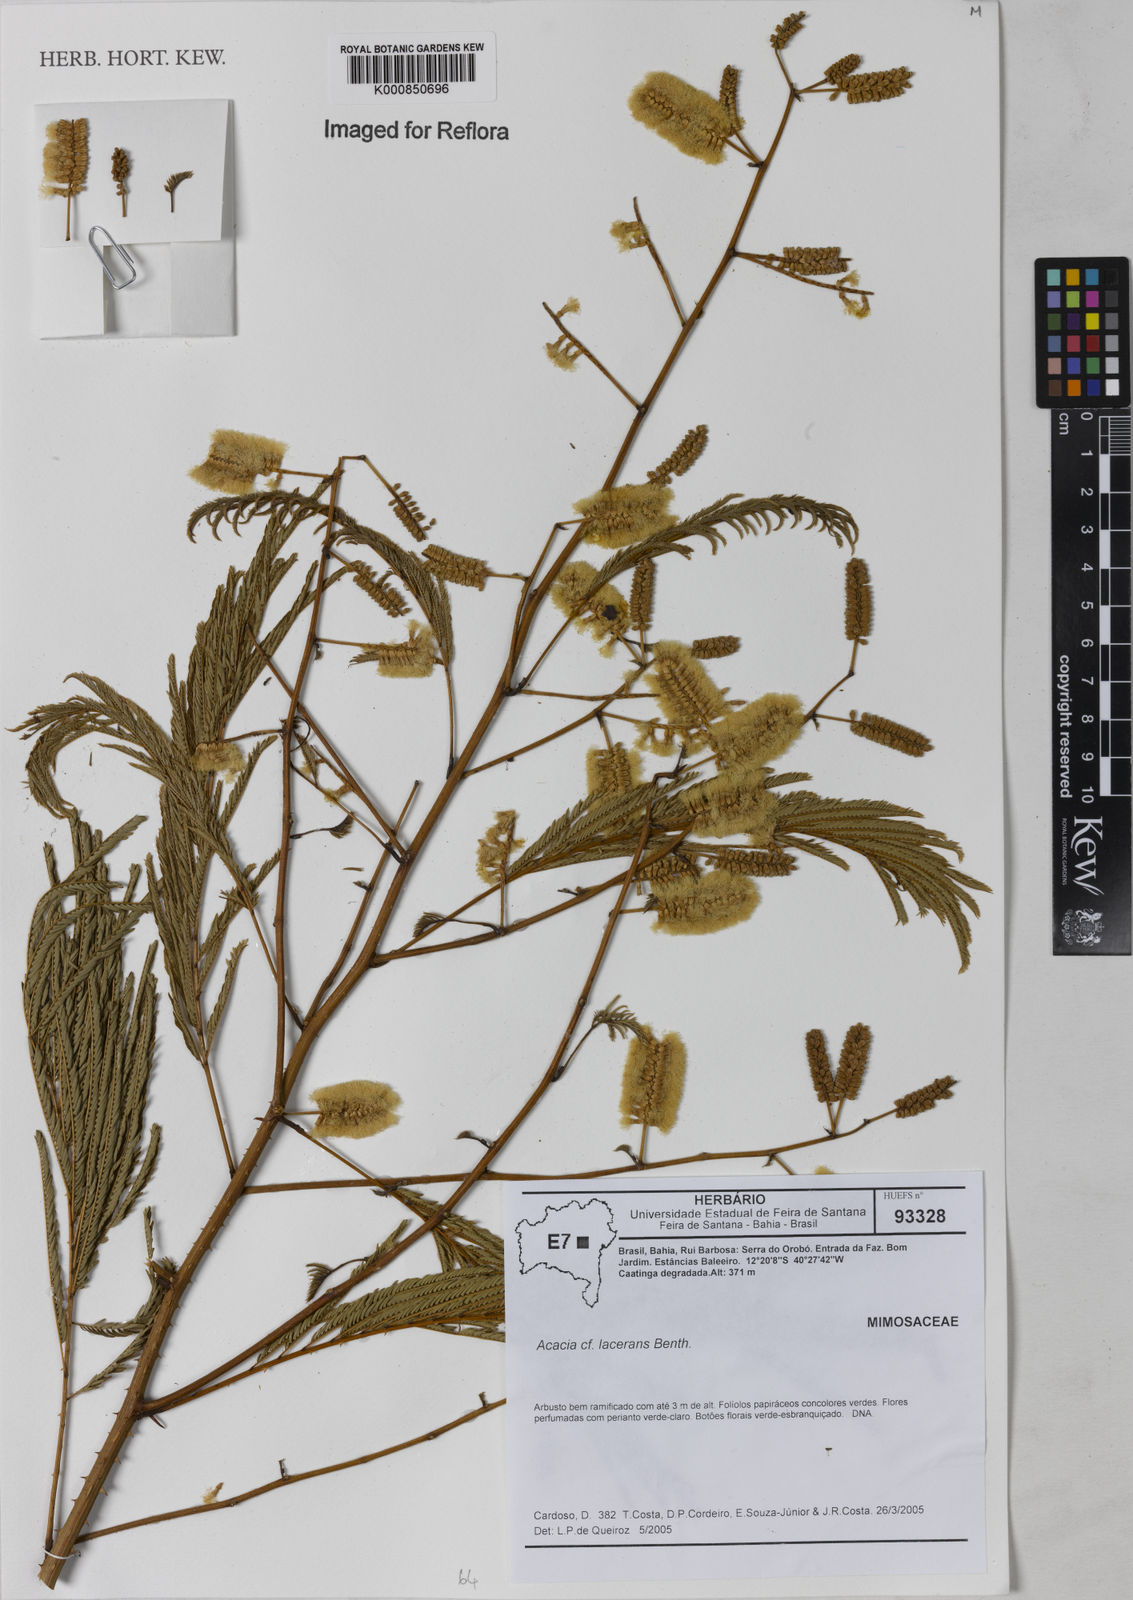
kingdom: Plantae
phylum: Tracheophyta
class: Magnoliopsida
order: Fabales
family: Fabaceae
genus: Senegalia
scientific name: Senegalia lacerans
